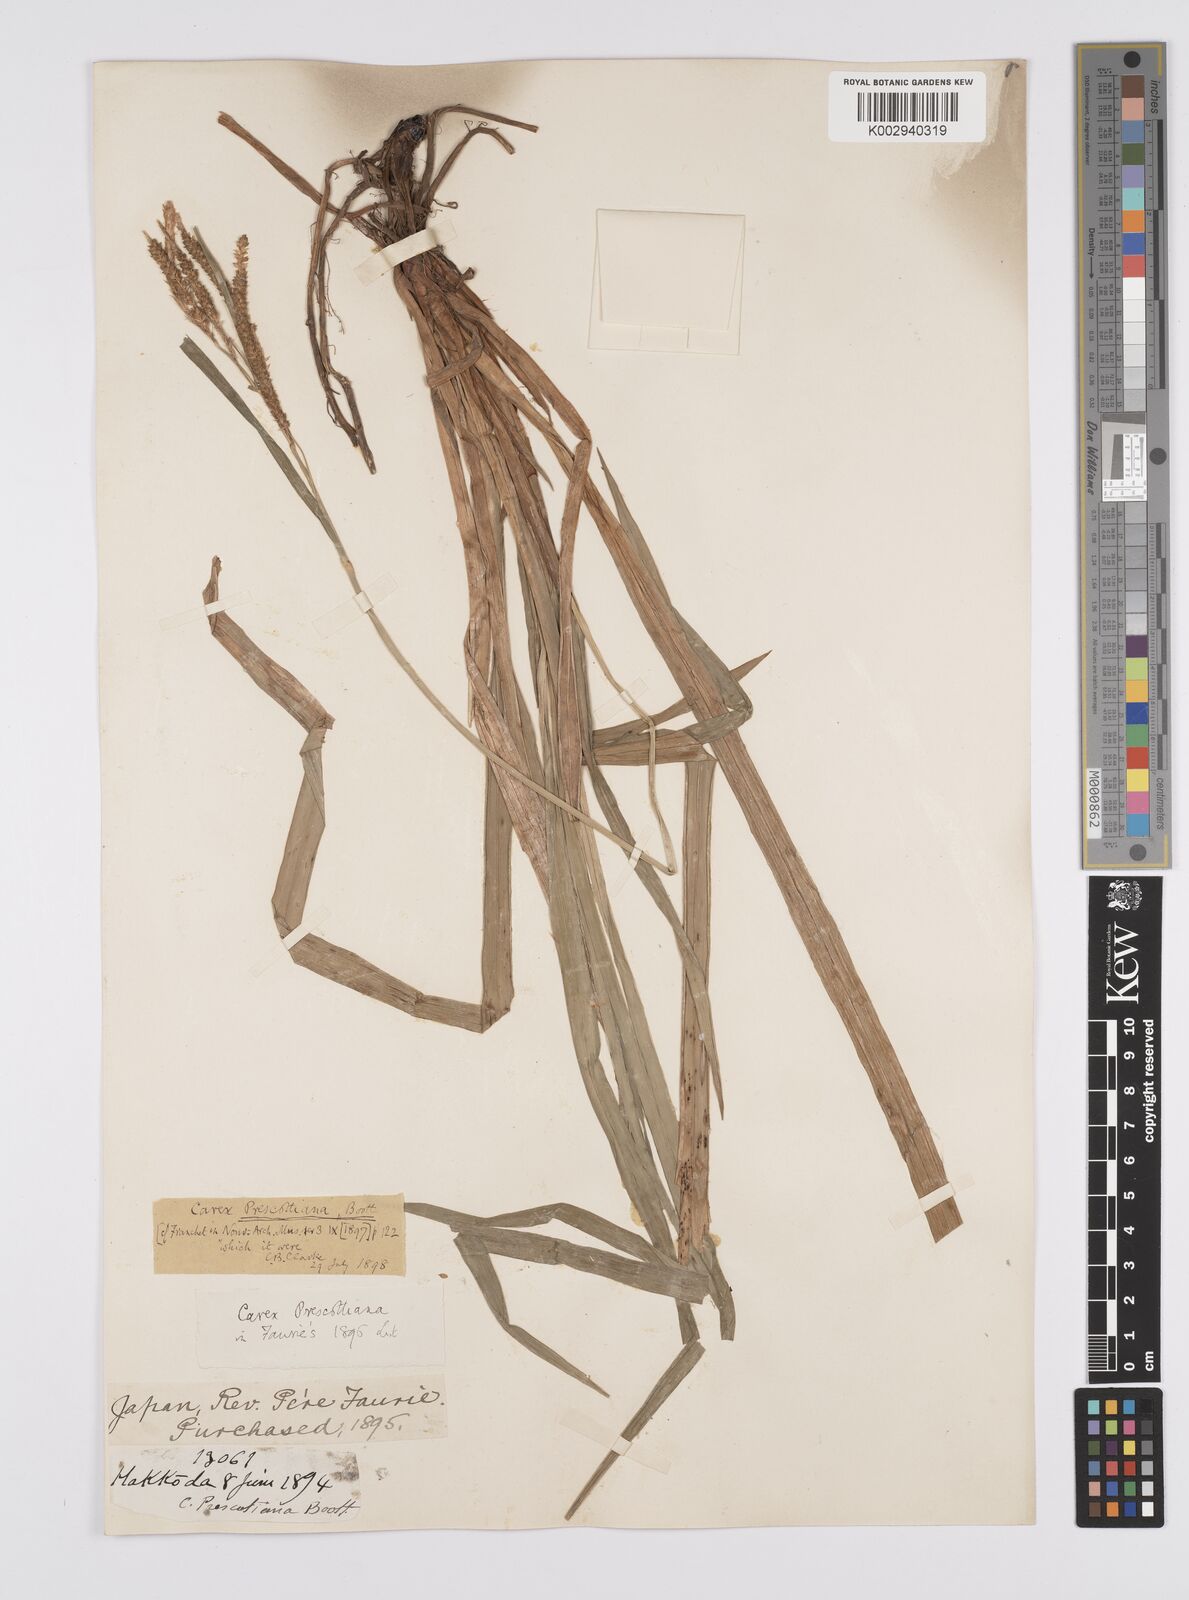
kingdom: Plantae
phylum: Tracheophyta
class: Liliopsida
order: Poales
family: Cyperaceae
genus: Carex
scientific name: Carex prescottiana
